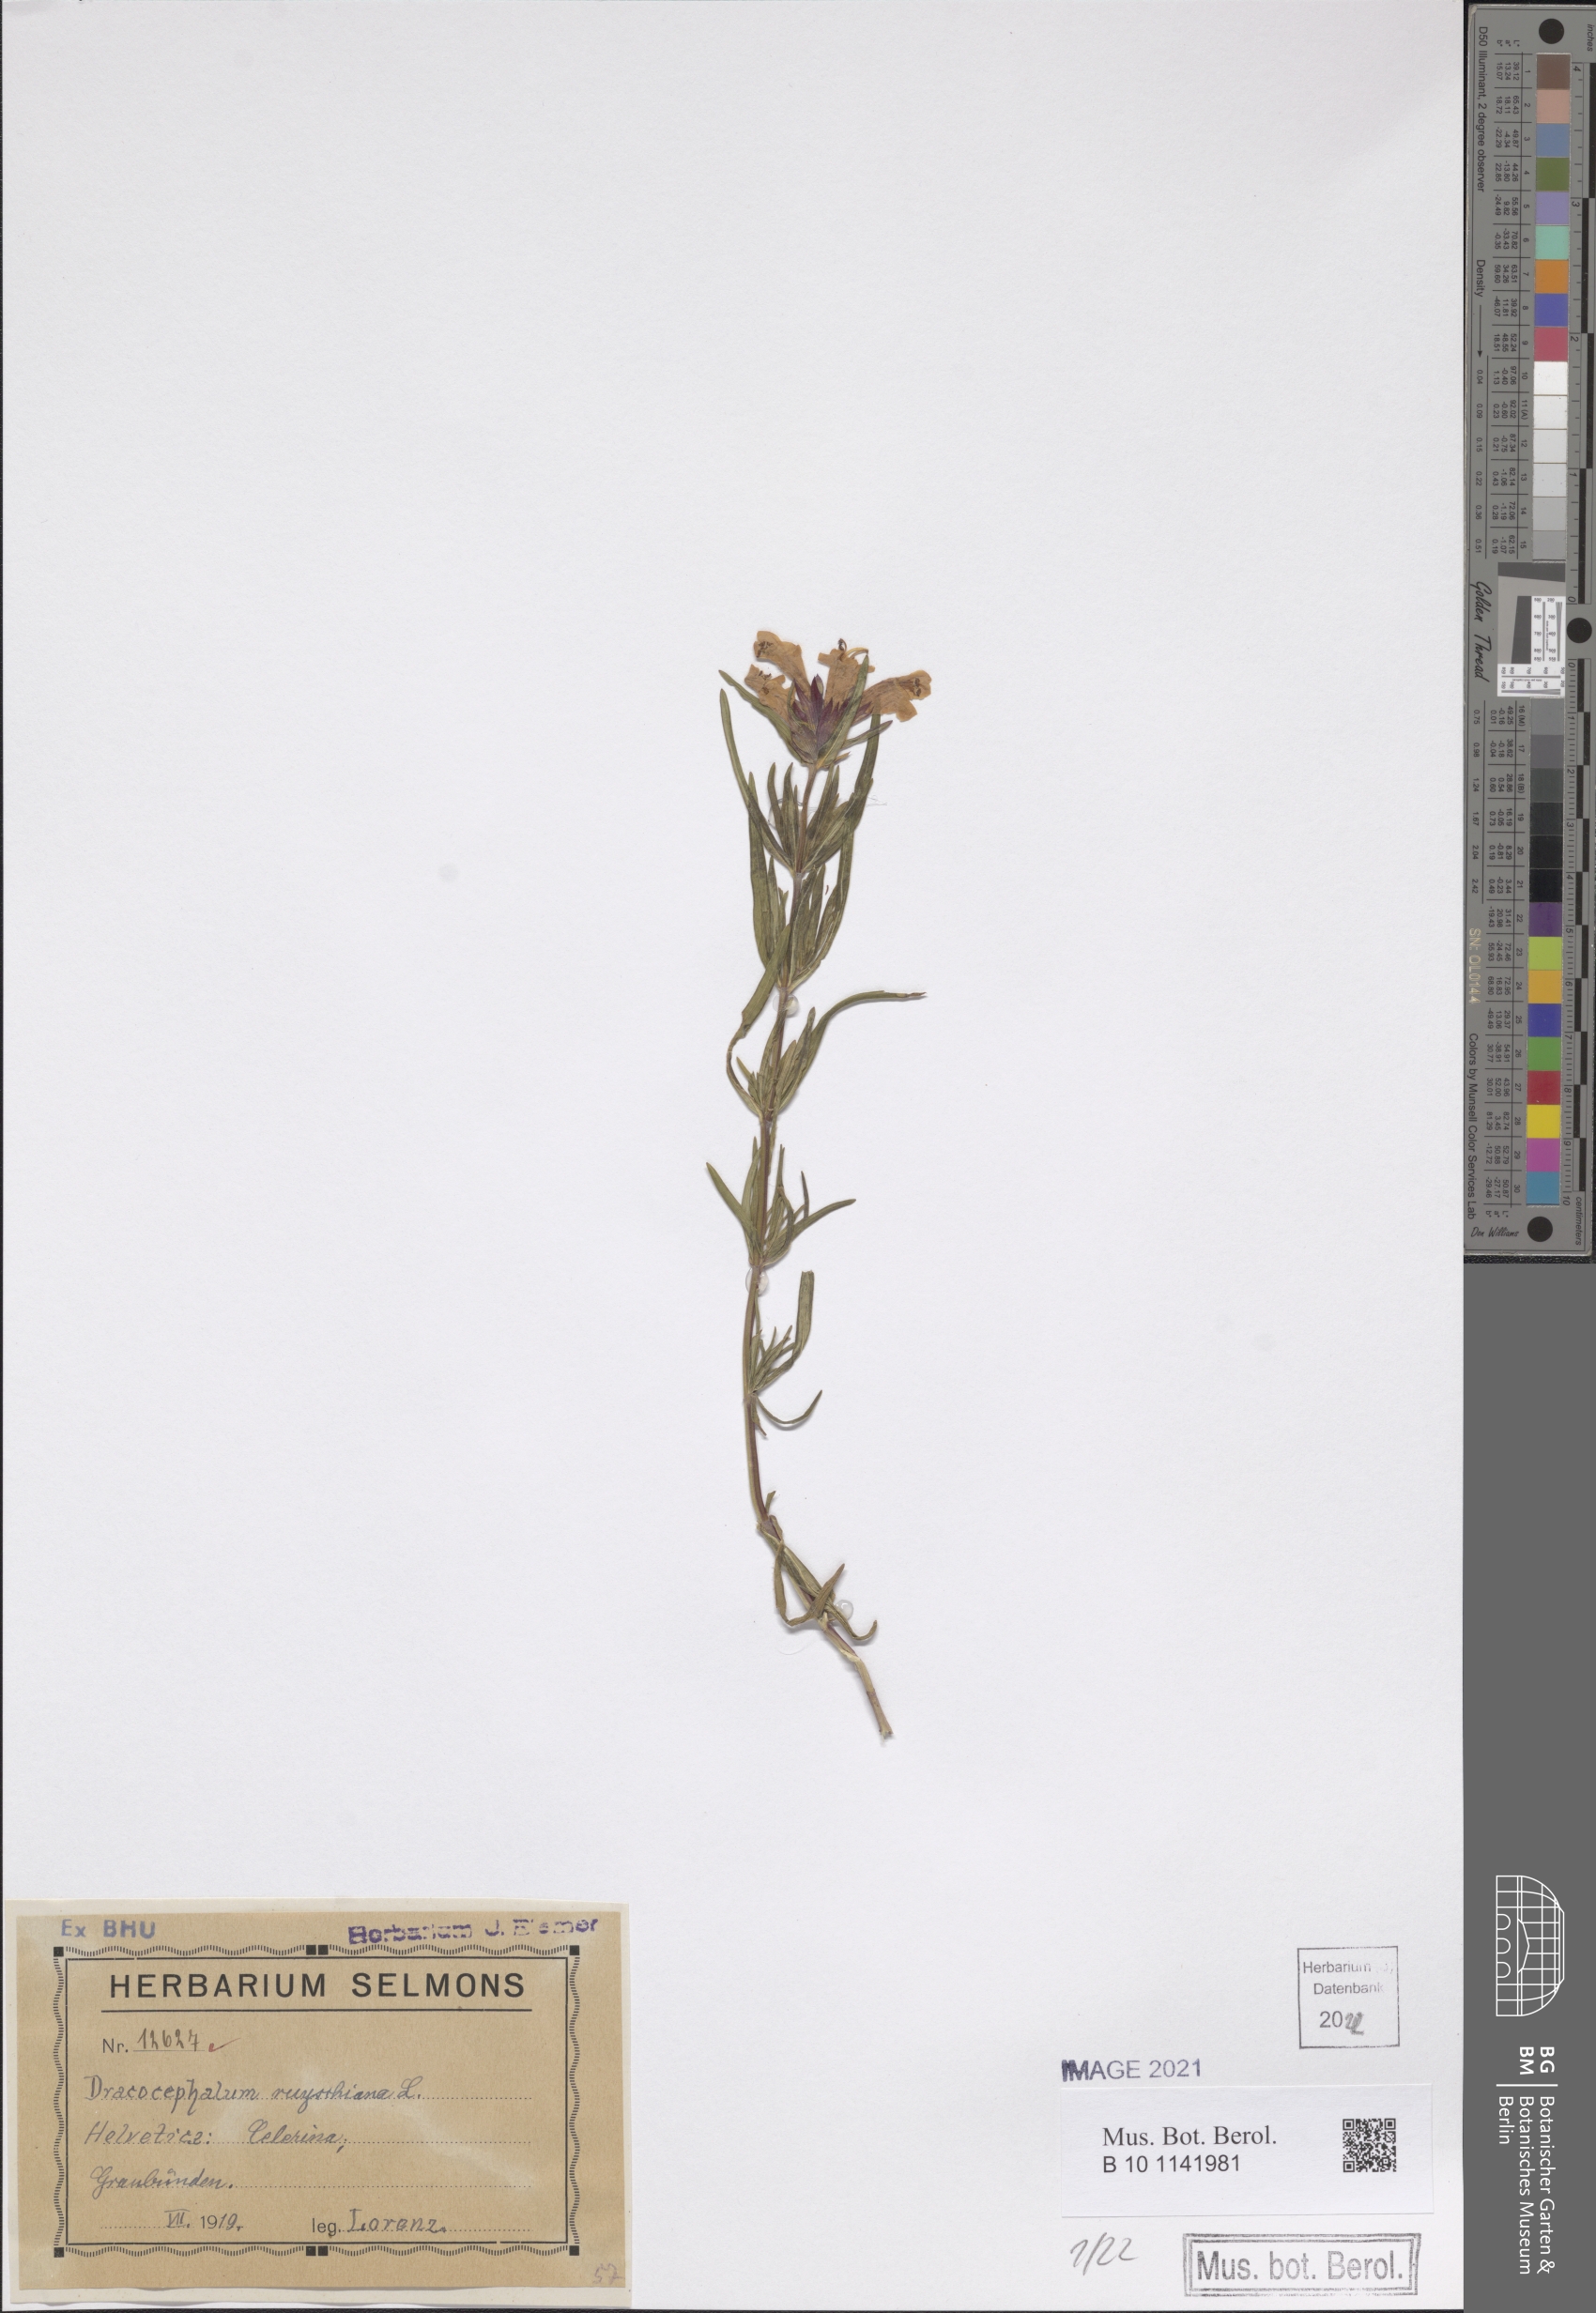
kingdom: Plantae
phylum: Tracheophyta
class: Magnoliopsida
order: Lamiales
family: Lamiaceae
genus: Dracocephalum
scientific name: Dracocephalum ruyschiana
